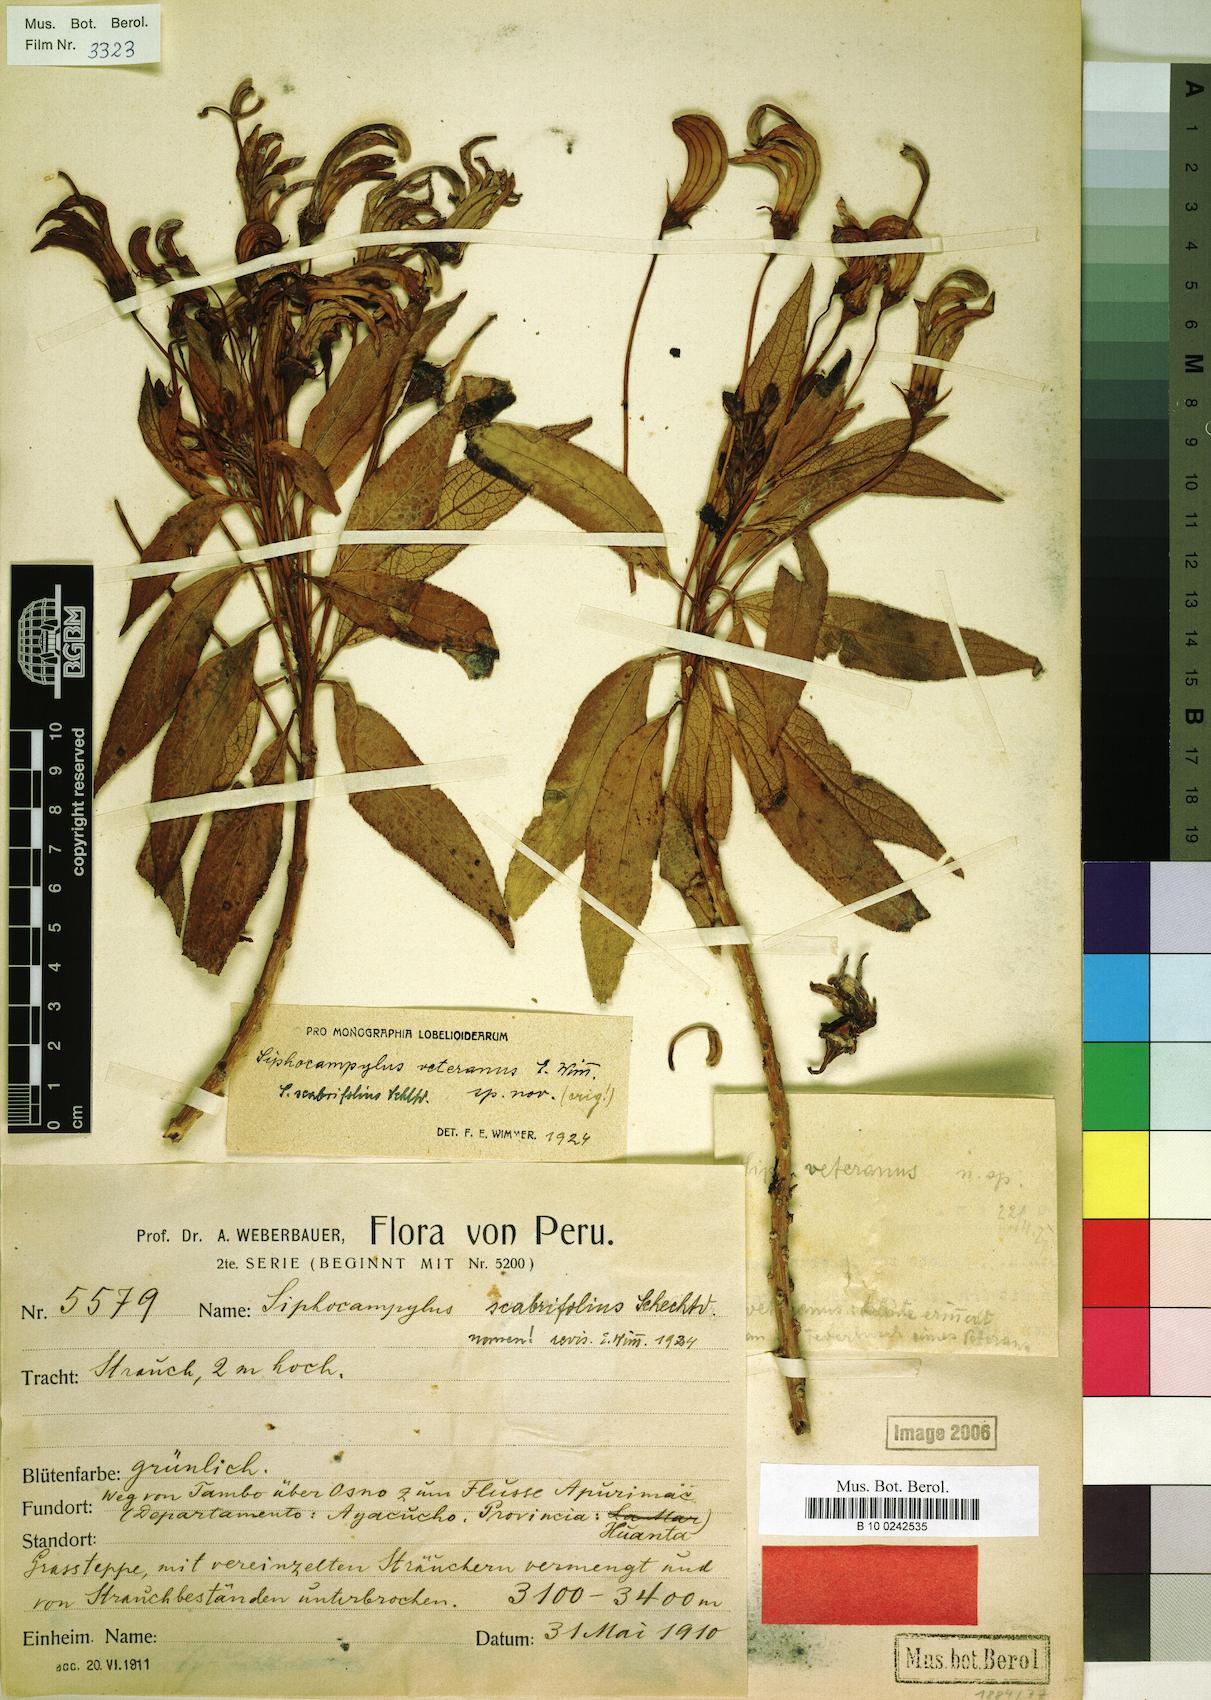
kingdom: Plantae
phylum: Tracheophyta
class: Magnoliopsida
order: Asterales
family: Campanulaceae
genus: Siphocampylus
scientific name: Siphocampylus veteranus
